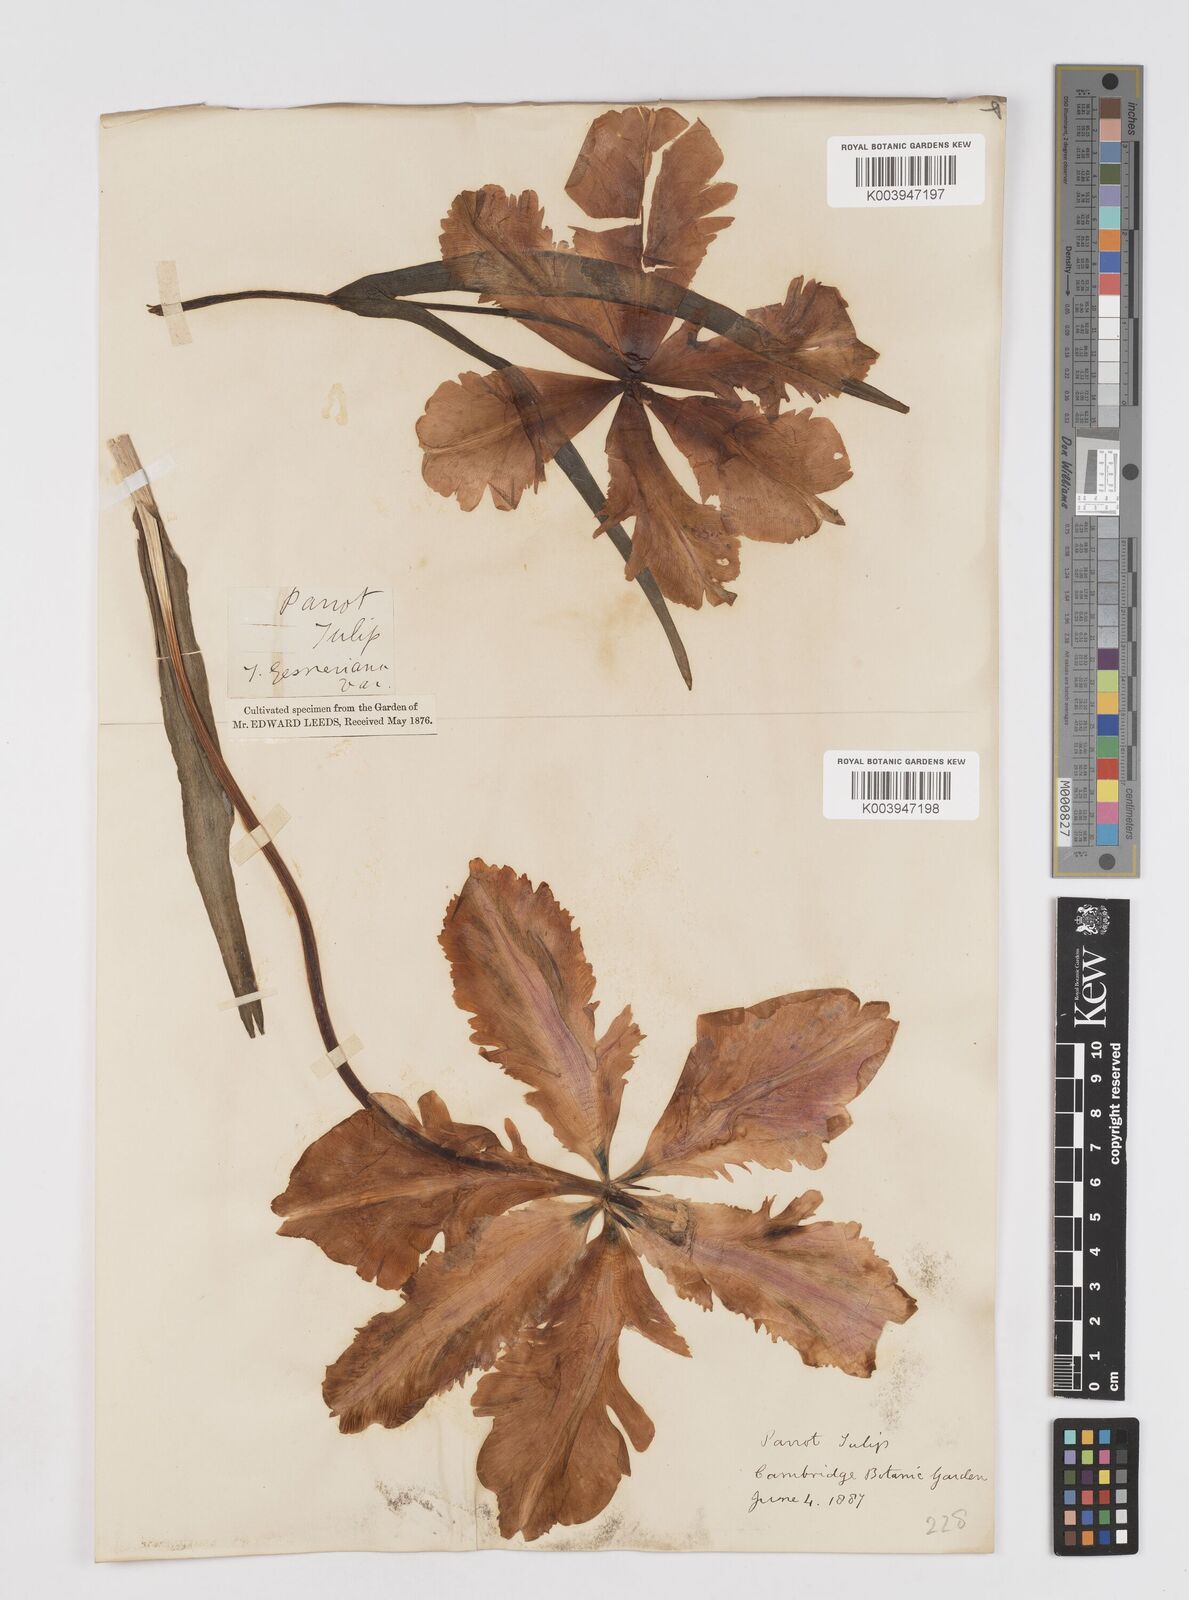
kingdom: Plantae
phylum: Tracheophyta
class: Liliopsida
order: Liliales
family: Liliaceae
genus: Tulipa
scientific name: Tulipa gesneriana
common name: Garden tulip
